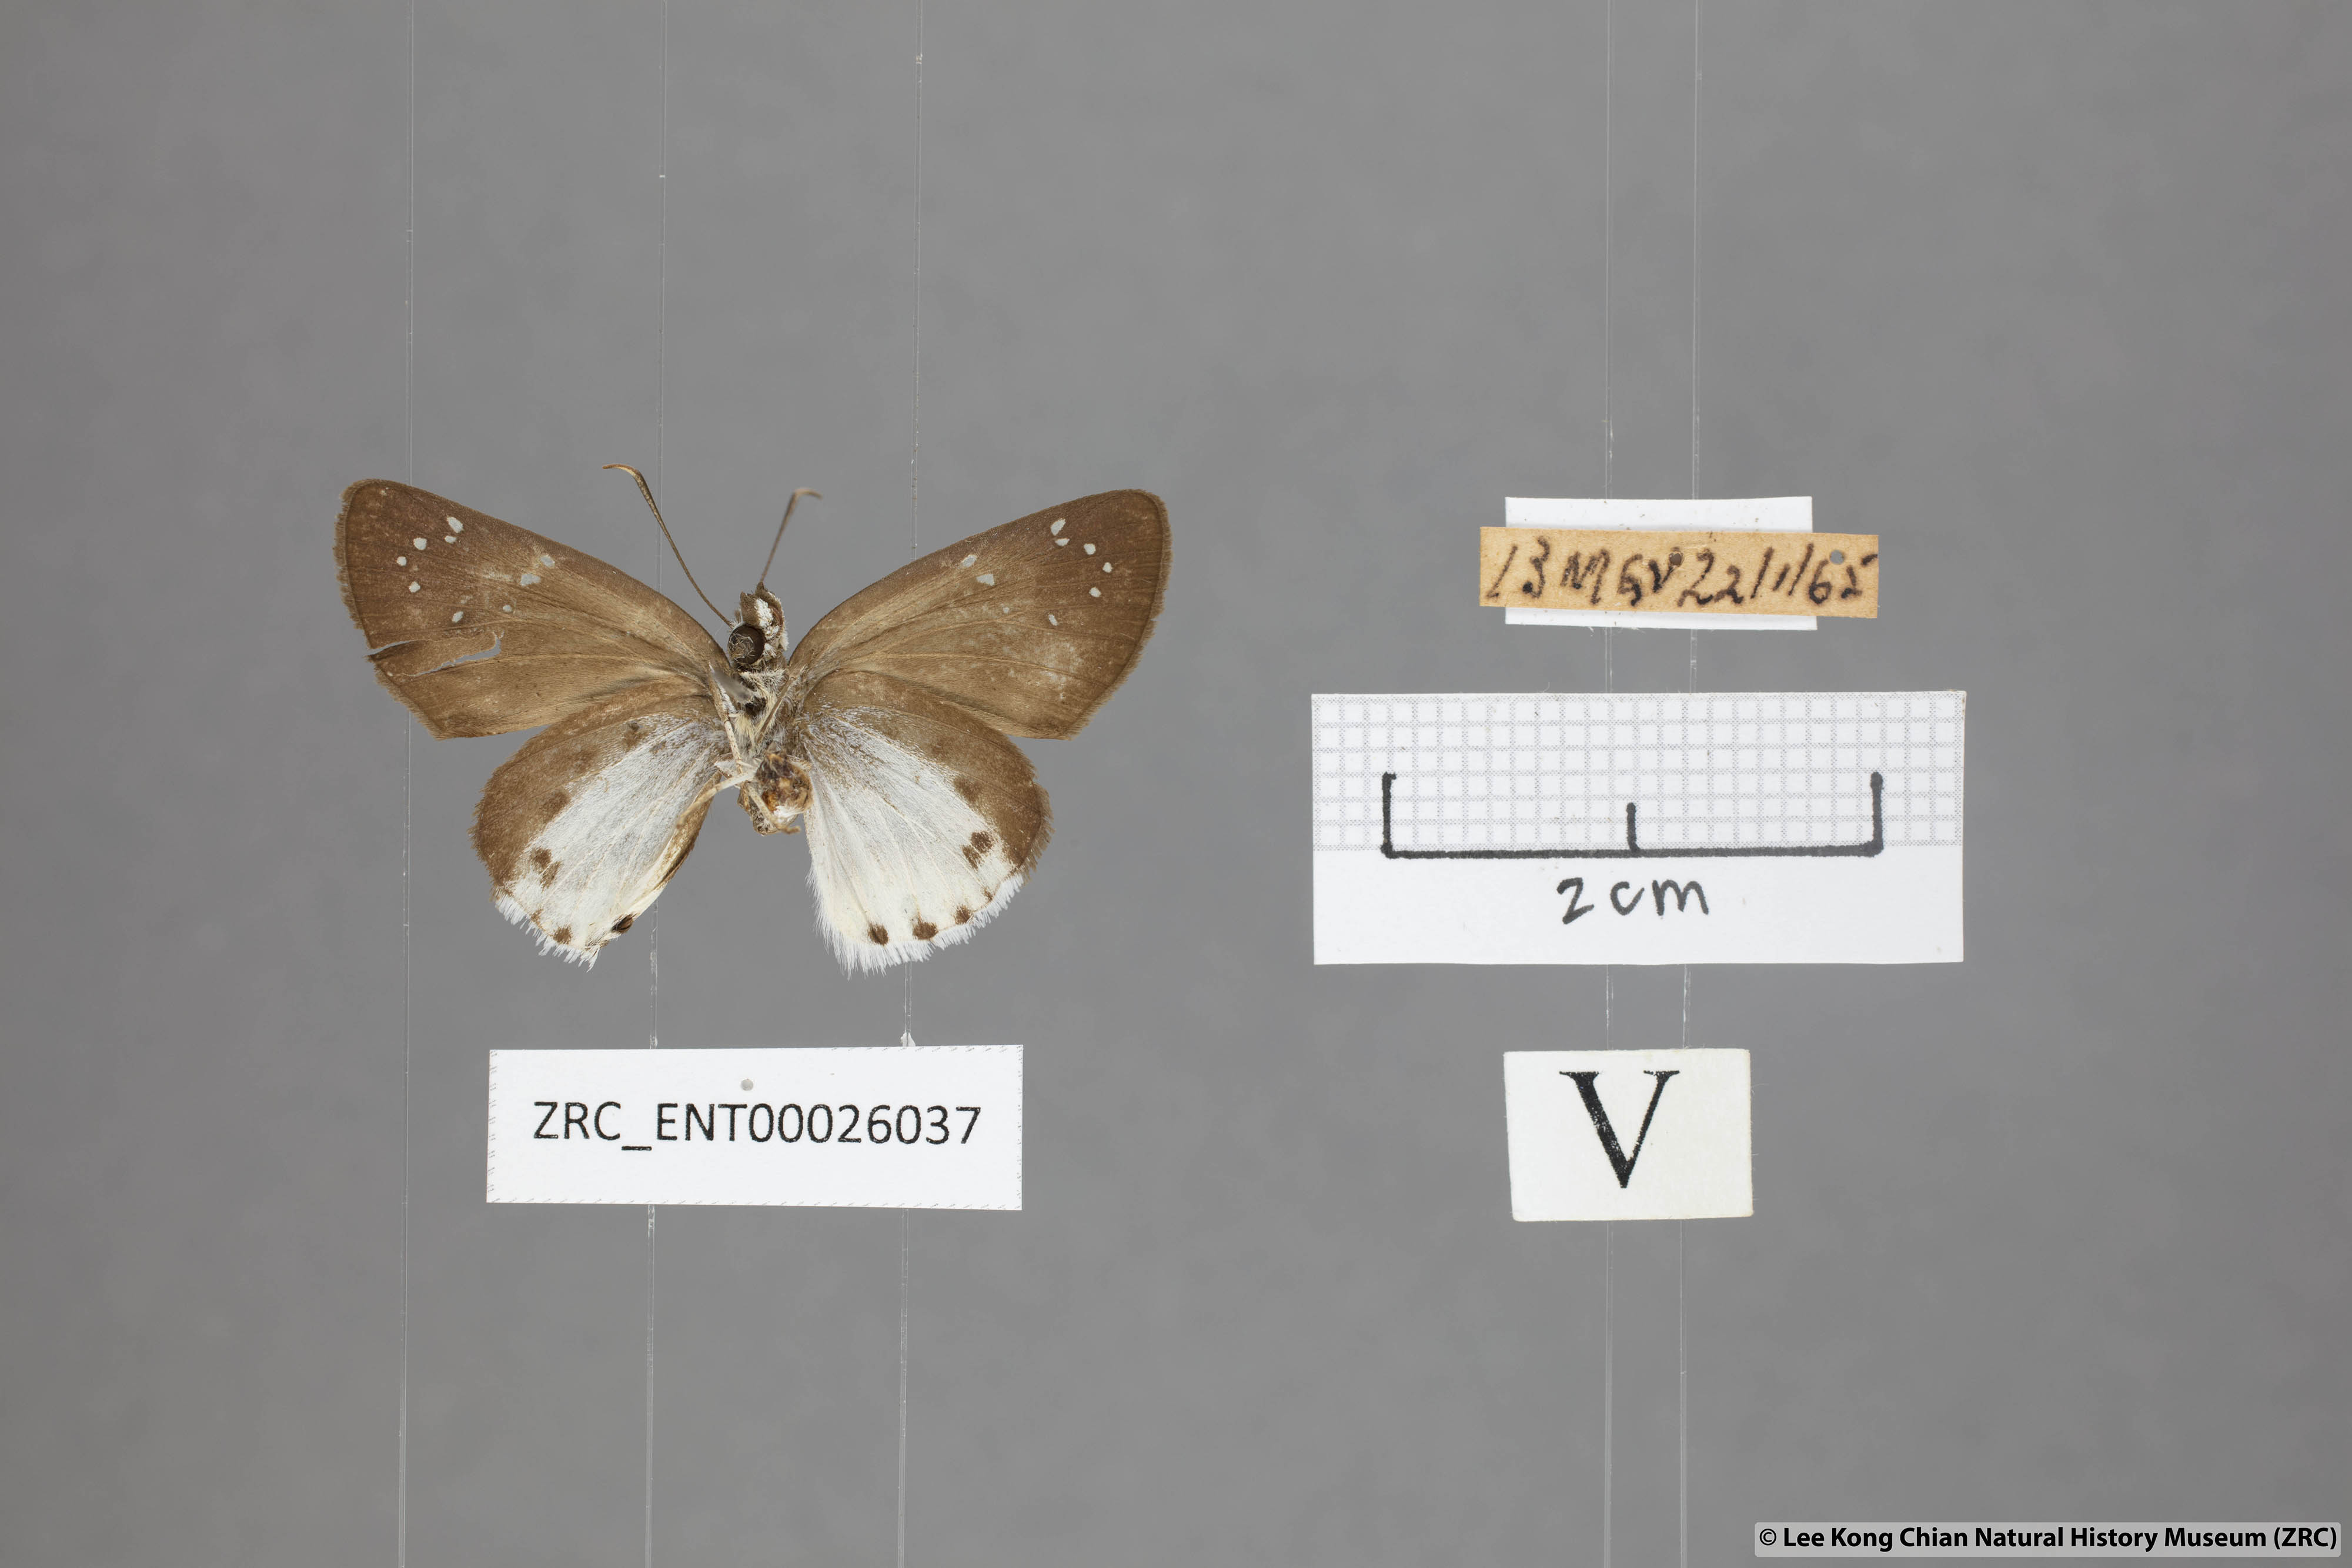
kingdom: Animalia
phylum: Arthropoda
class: Insecta
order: Lepidoptera
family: Hesperiidae
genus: Tagiades
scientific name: Tagiades toba
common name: Different-spotted snow flat
